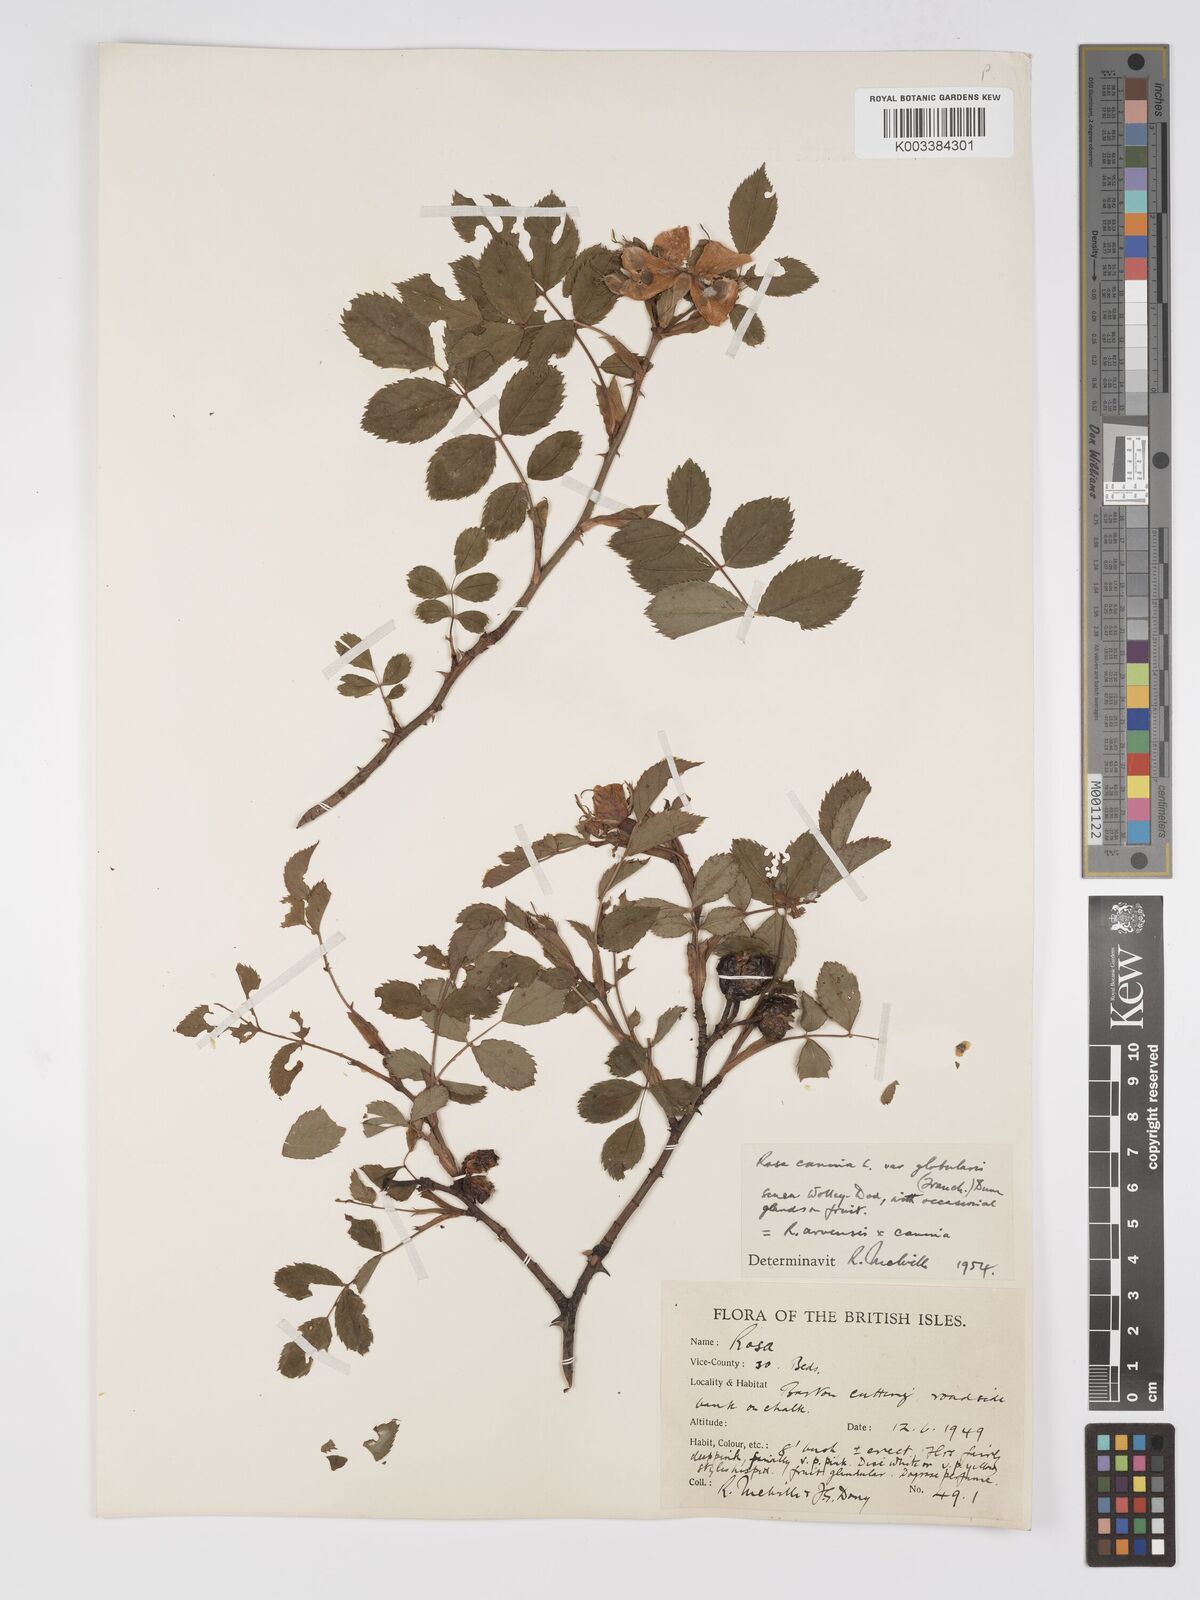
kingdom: Plantae
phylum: Tracheophyta
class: Magnoliopsida
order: Rosales
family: Rosaceae
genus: Rosa
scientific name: Rosa canina
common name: Dog rose
